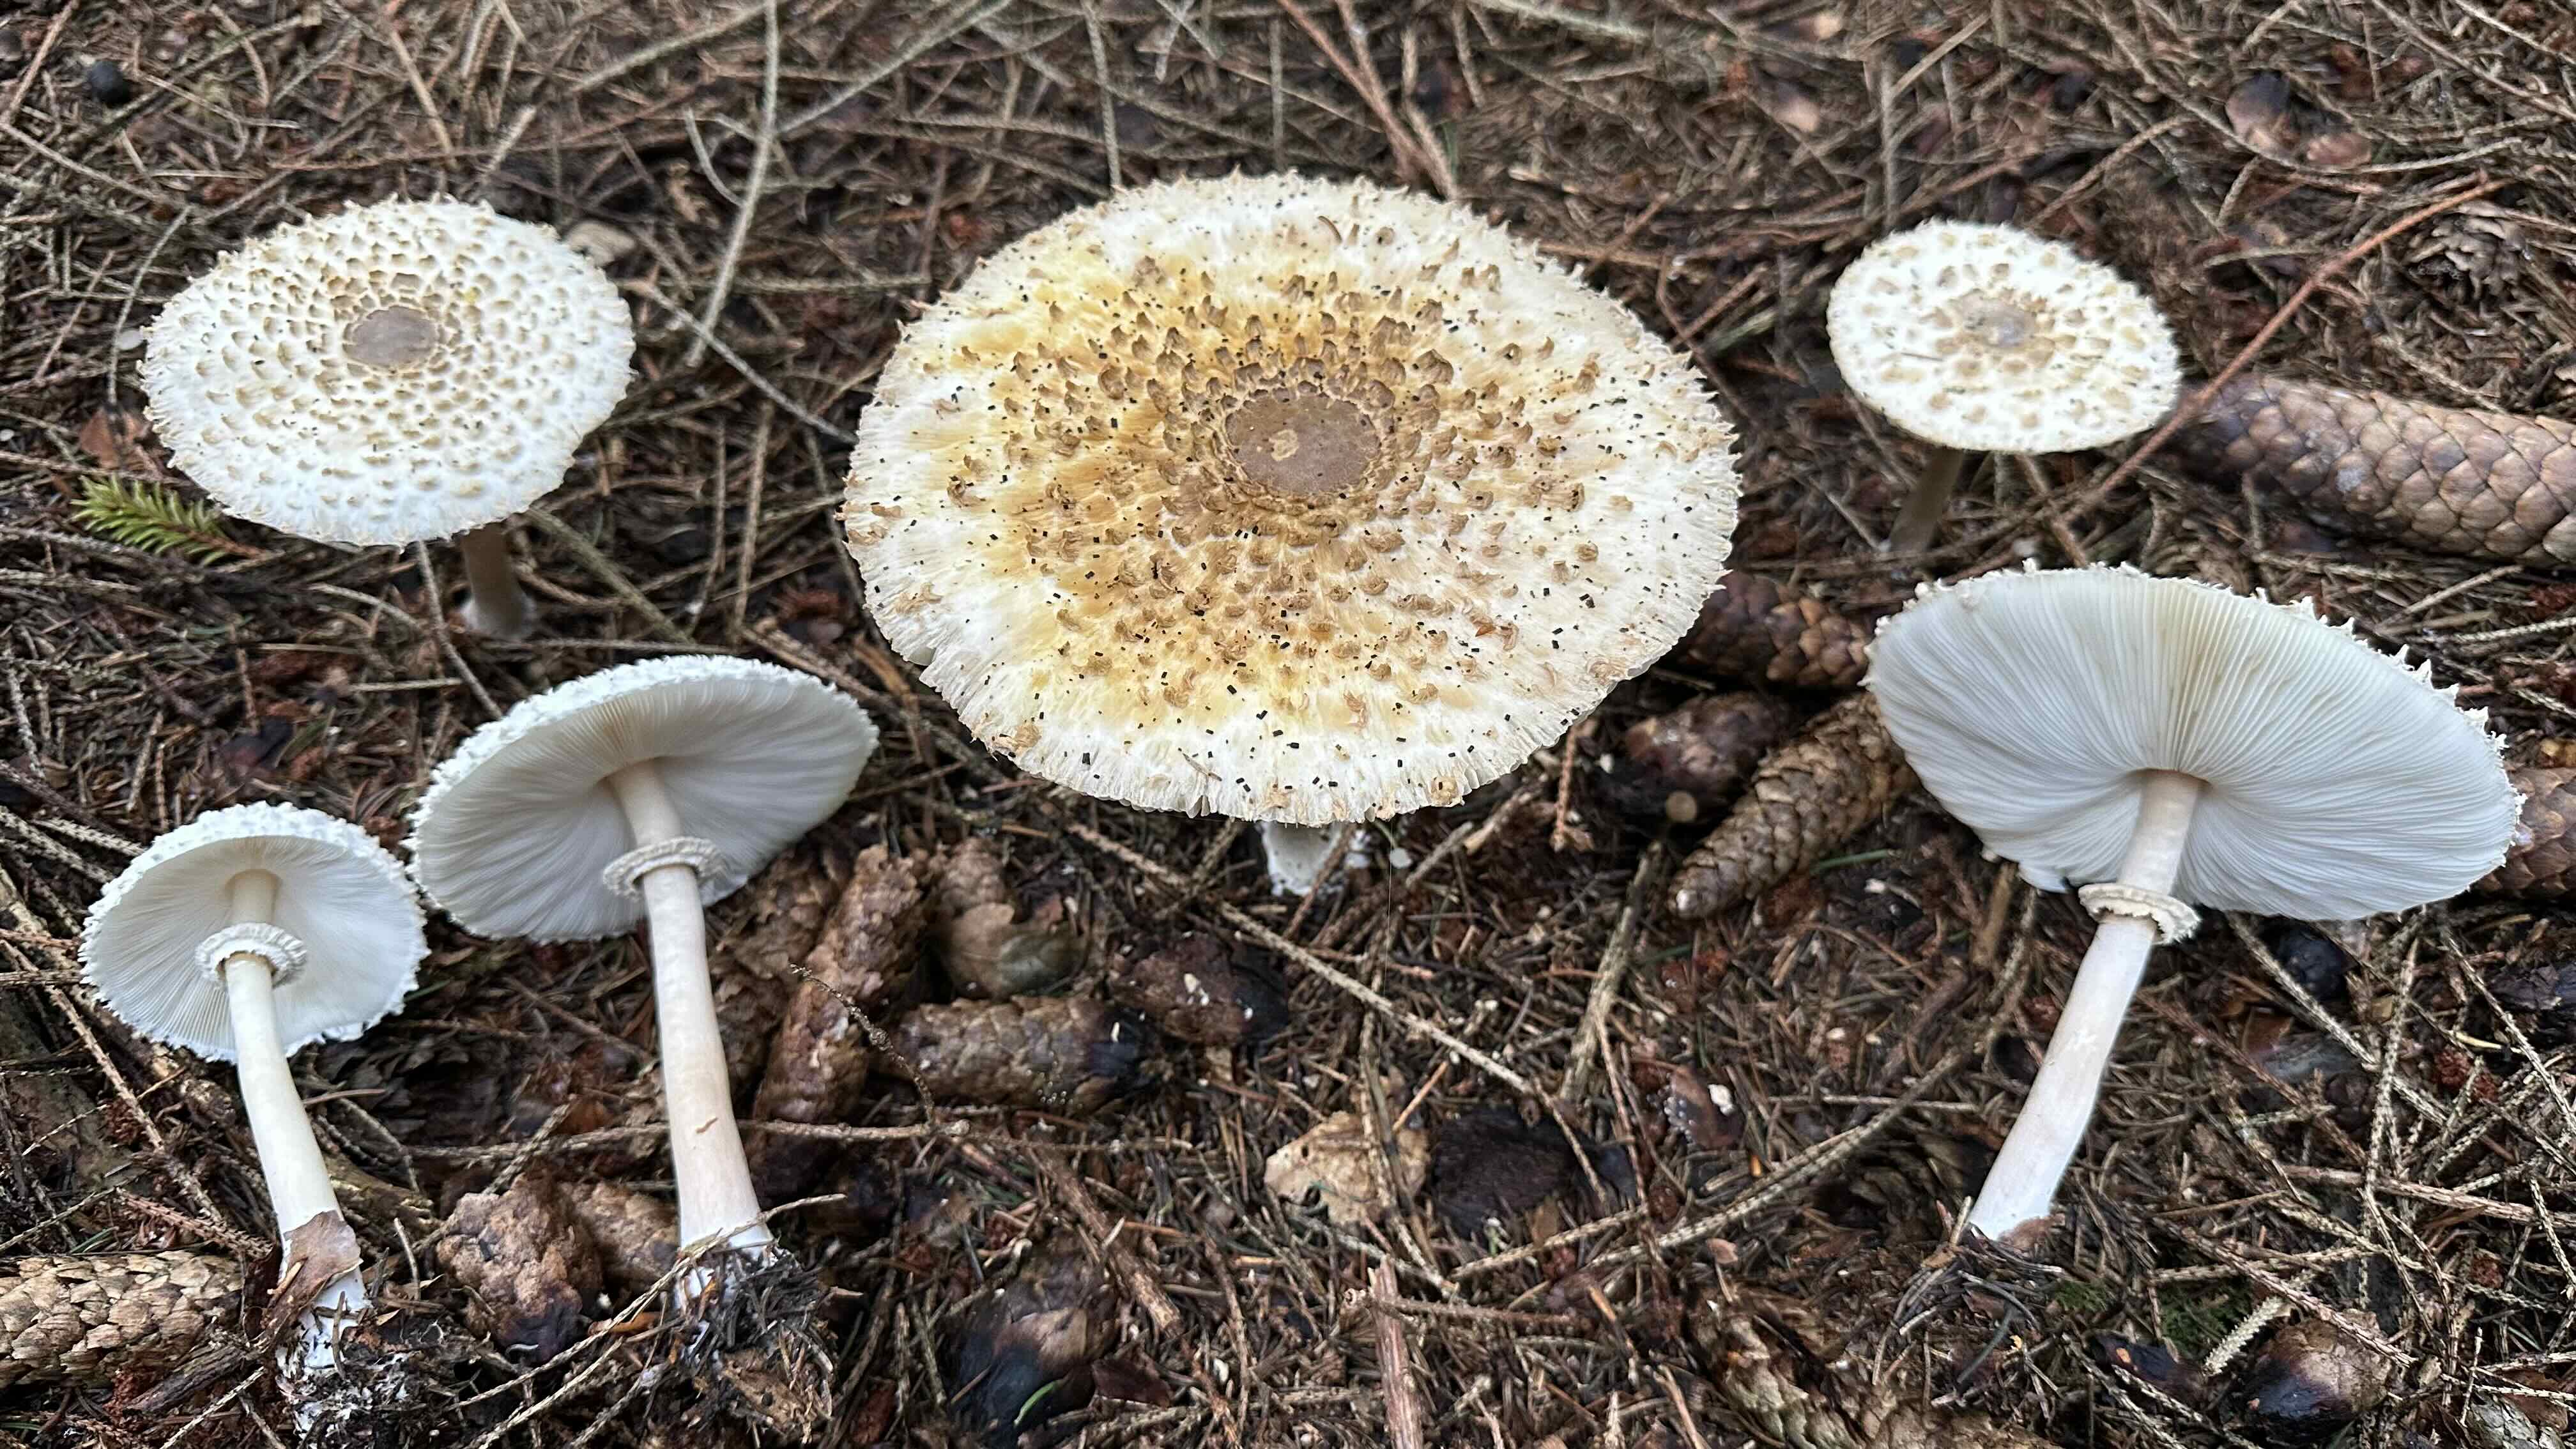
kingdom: Fungi
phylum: Basidiomycota
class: Agaricomycetes
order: Agaricales
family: Agaricaceae
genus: Leucoagaricus
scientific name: Leucoagaricus nympharum
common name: gran-silkehat
